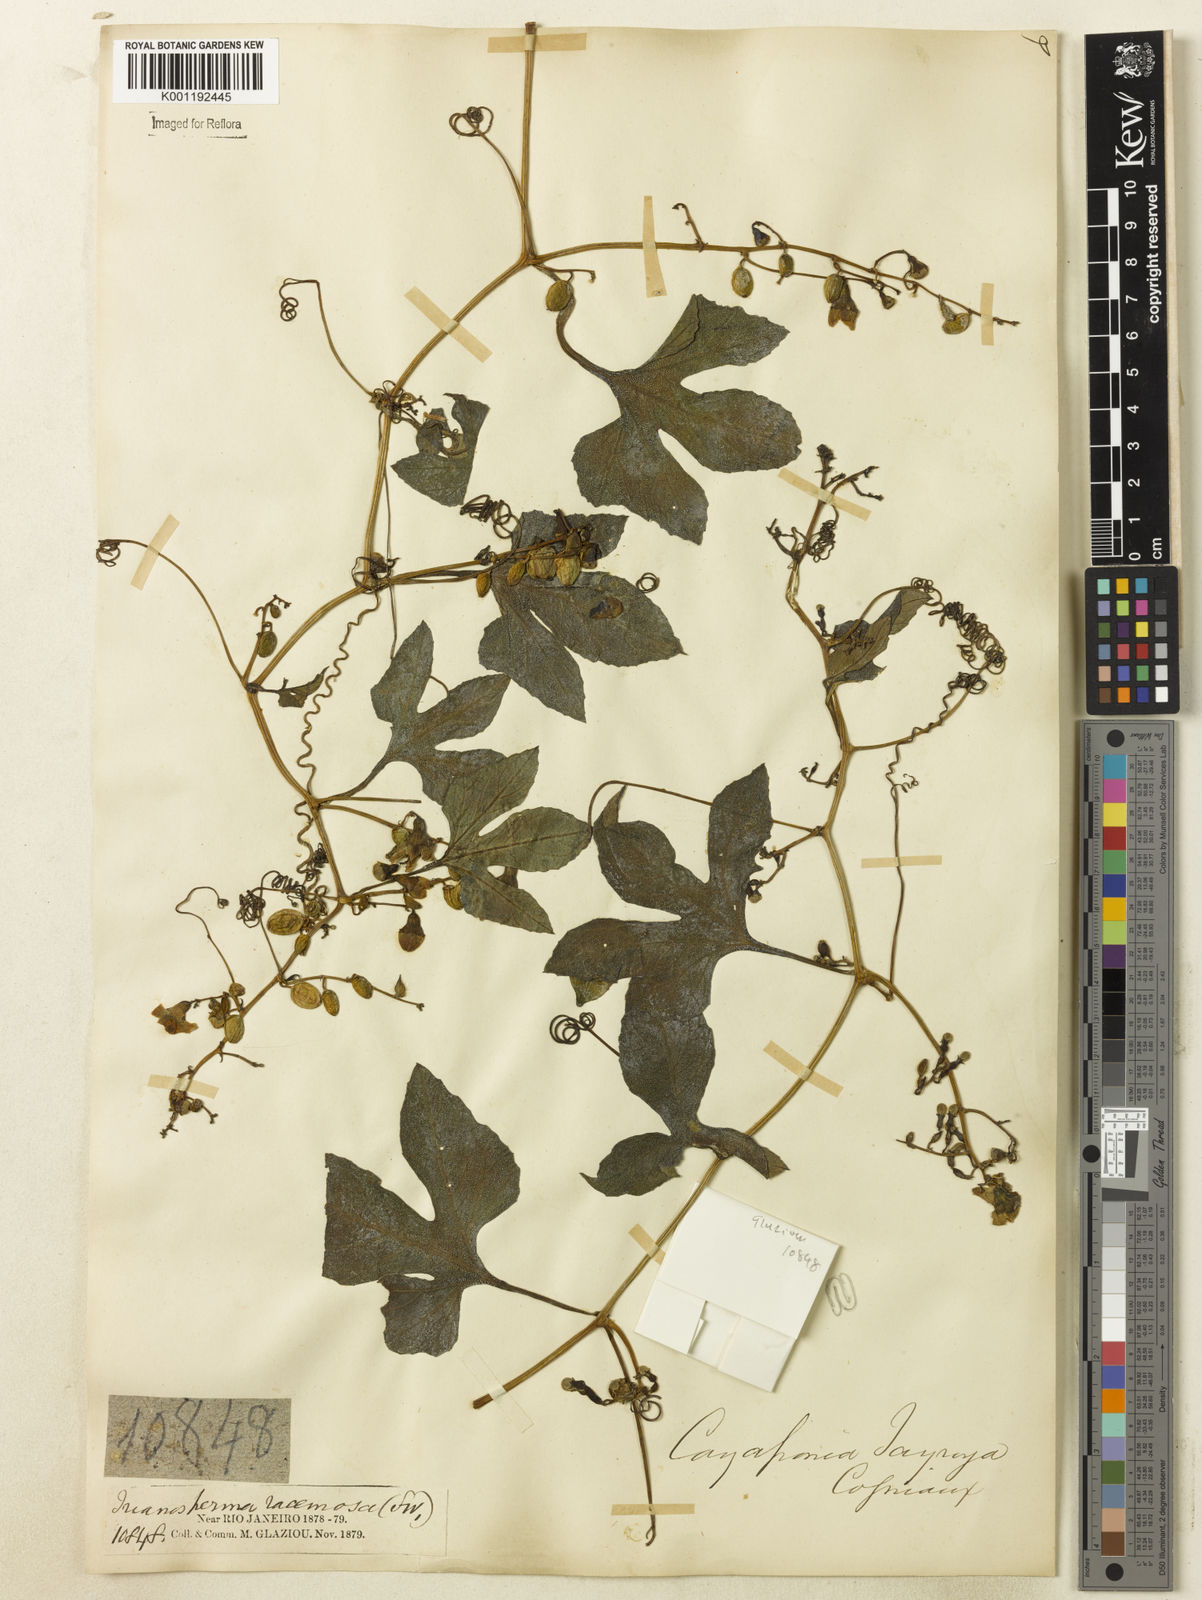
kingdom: Plantae
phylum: Tracheophyta
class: Magnoliopsida
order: Cucurbitales
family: Cucurbitaceae
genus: Cayaponia
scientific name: Cayaponia tayuya
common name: Tayuya
